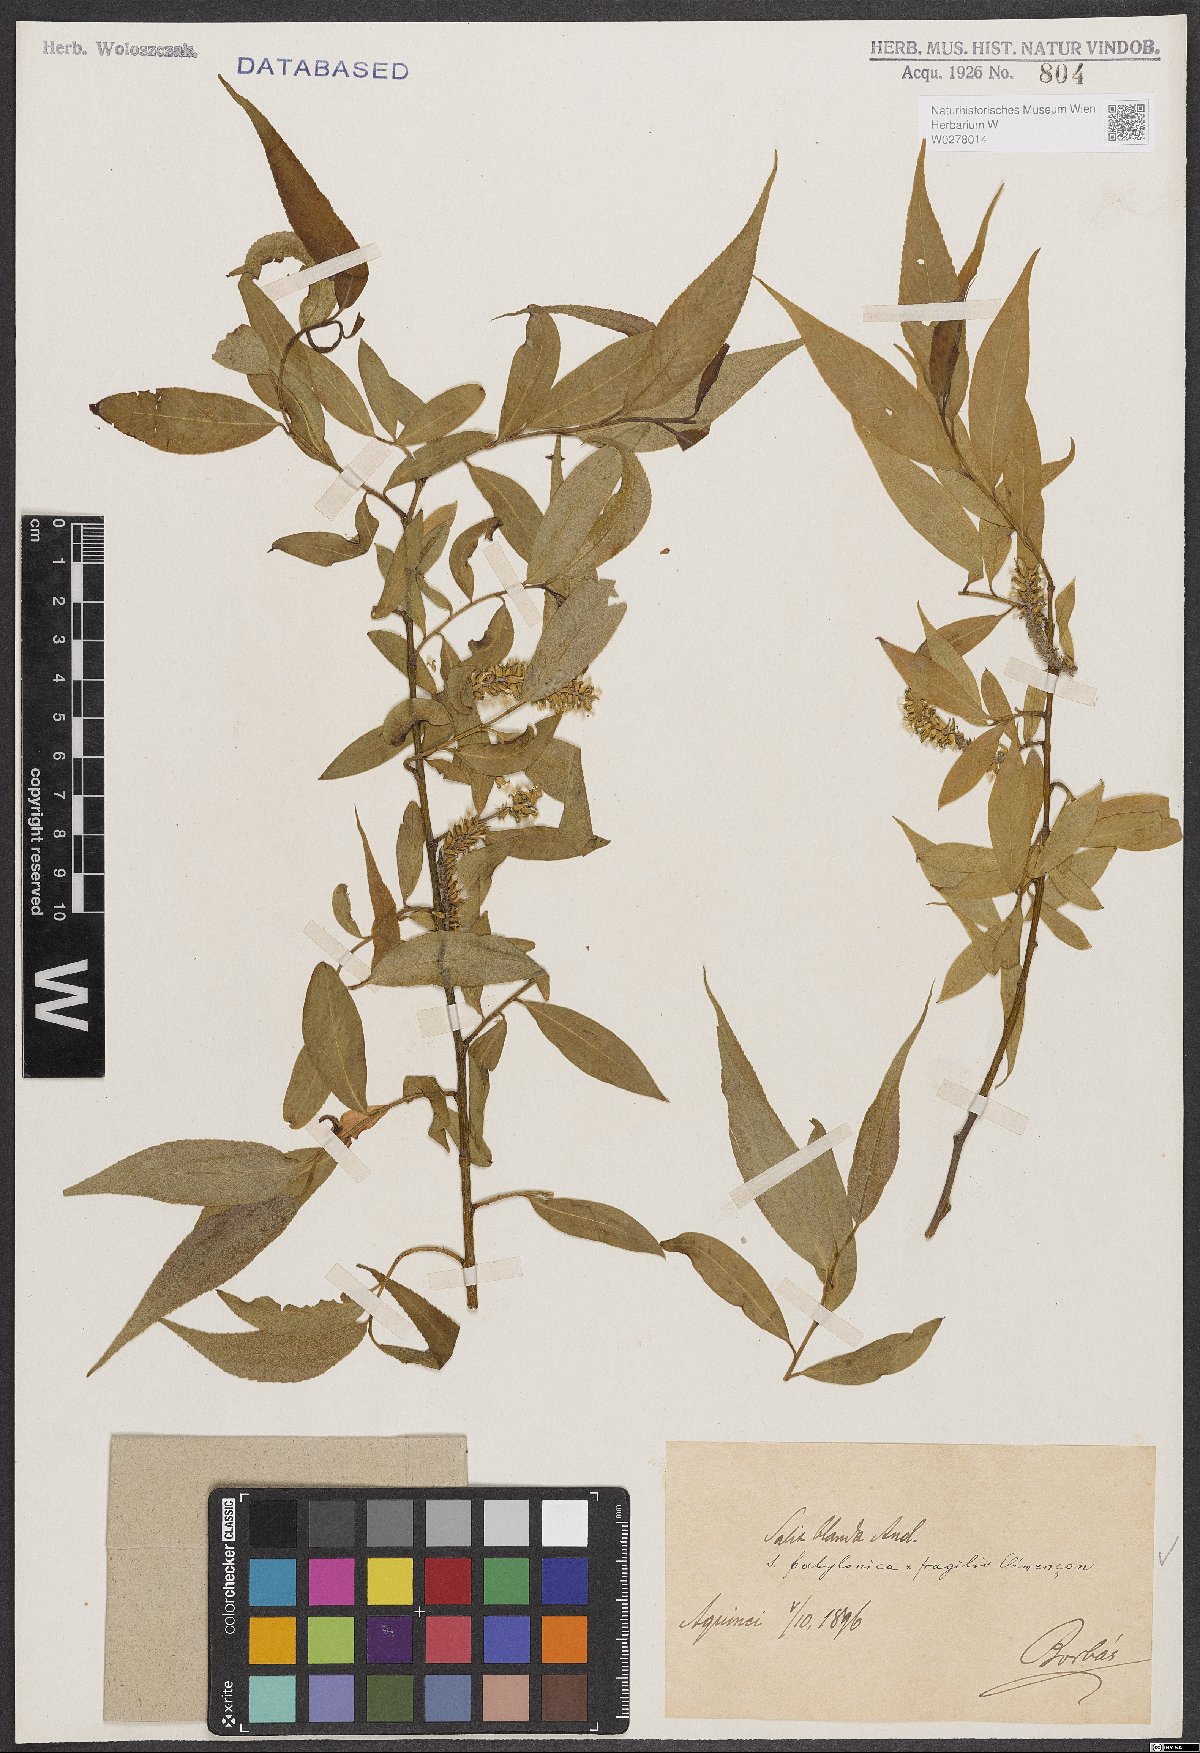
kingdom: Plantae
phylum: Tracheophyta
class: Magnoliopsida
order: Malpighiales
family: Salicaceae
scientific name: Salicaceae
